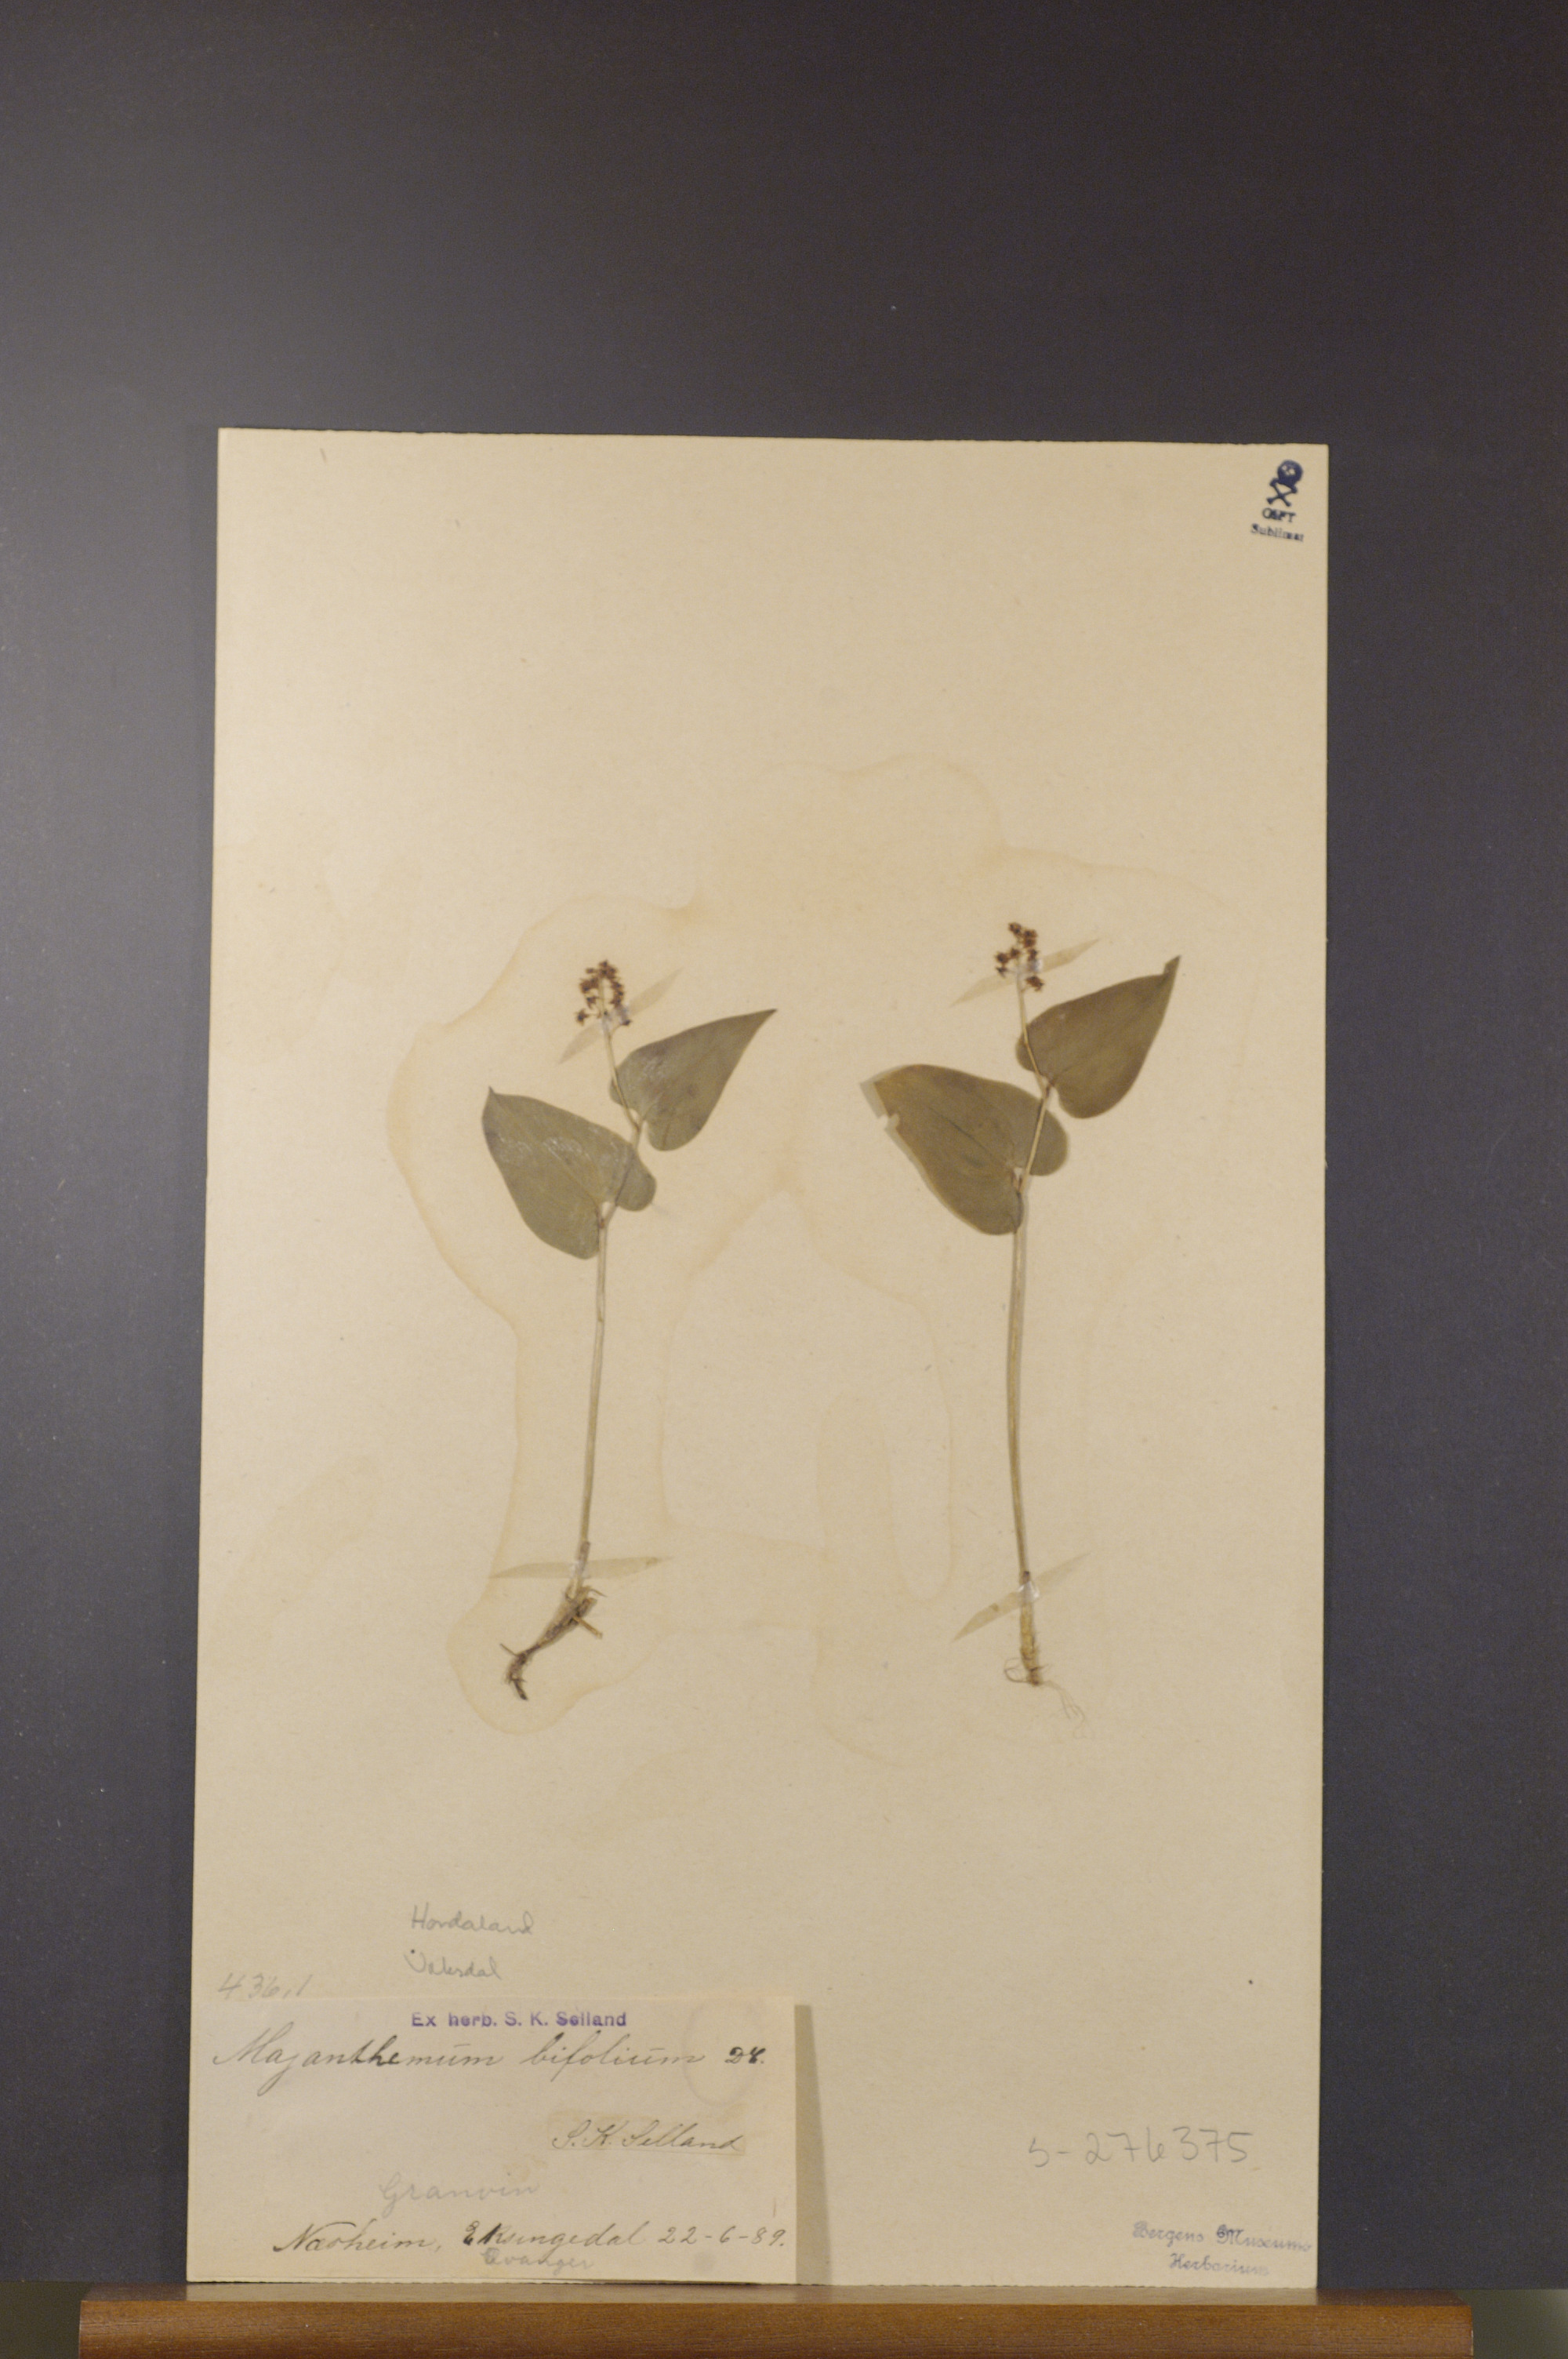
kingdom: Plantae
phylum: Tracheophyta
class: Liliopsida
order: Asparagales
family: Asparagaceae
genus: Maianthemum
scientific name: Maianthemum bifolium
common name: May lily
